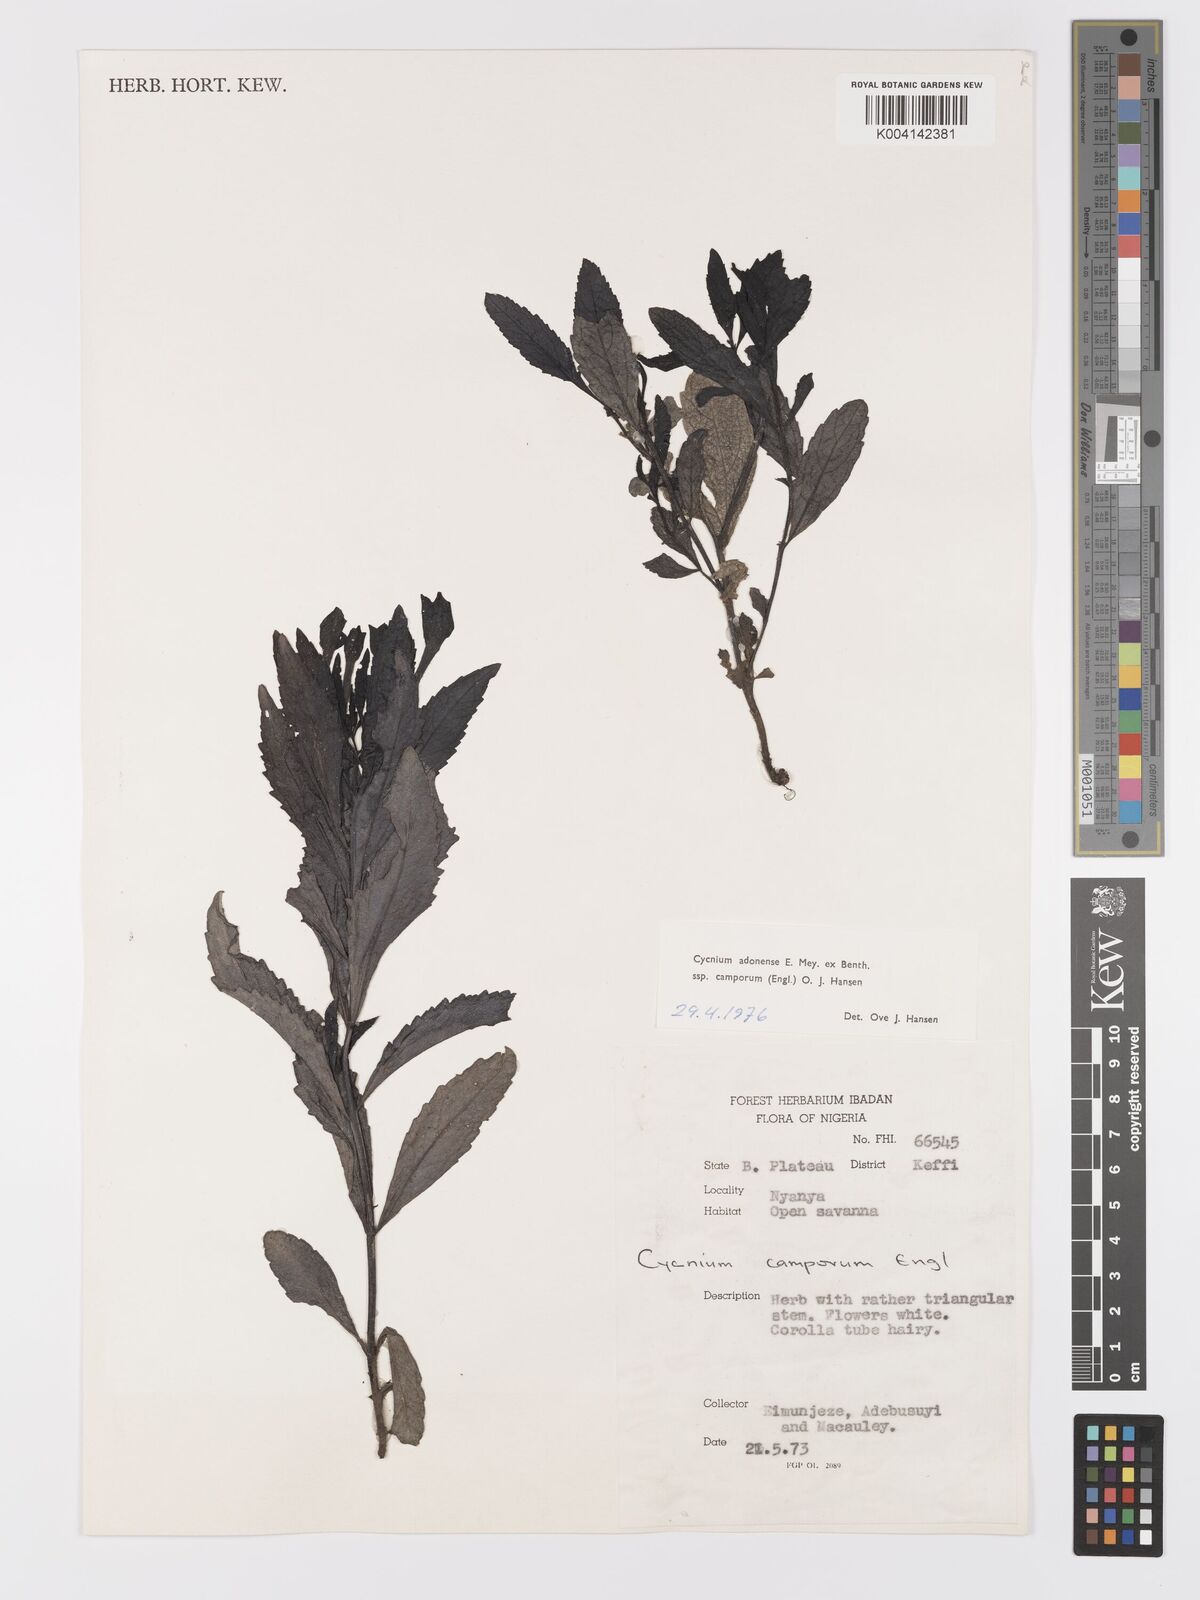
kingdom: Plantae
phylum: Tracheophyta
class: Magnoliopsida
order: Lamiales
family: Orobanchaceae
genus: Cycnium
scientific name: Cycnium adoense
